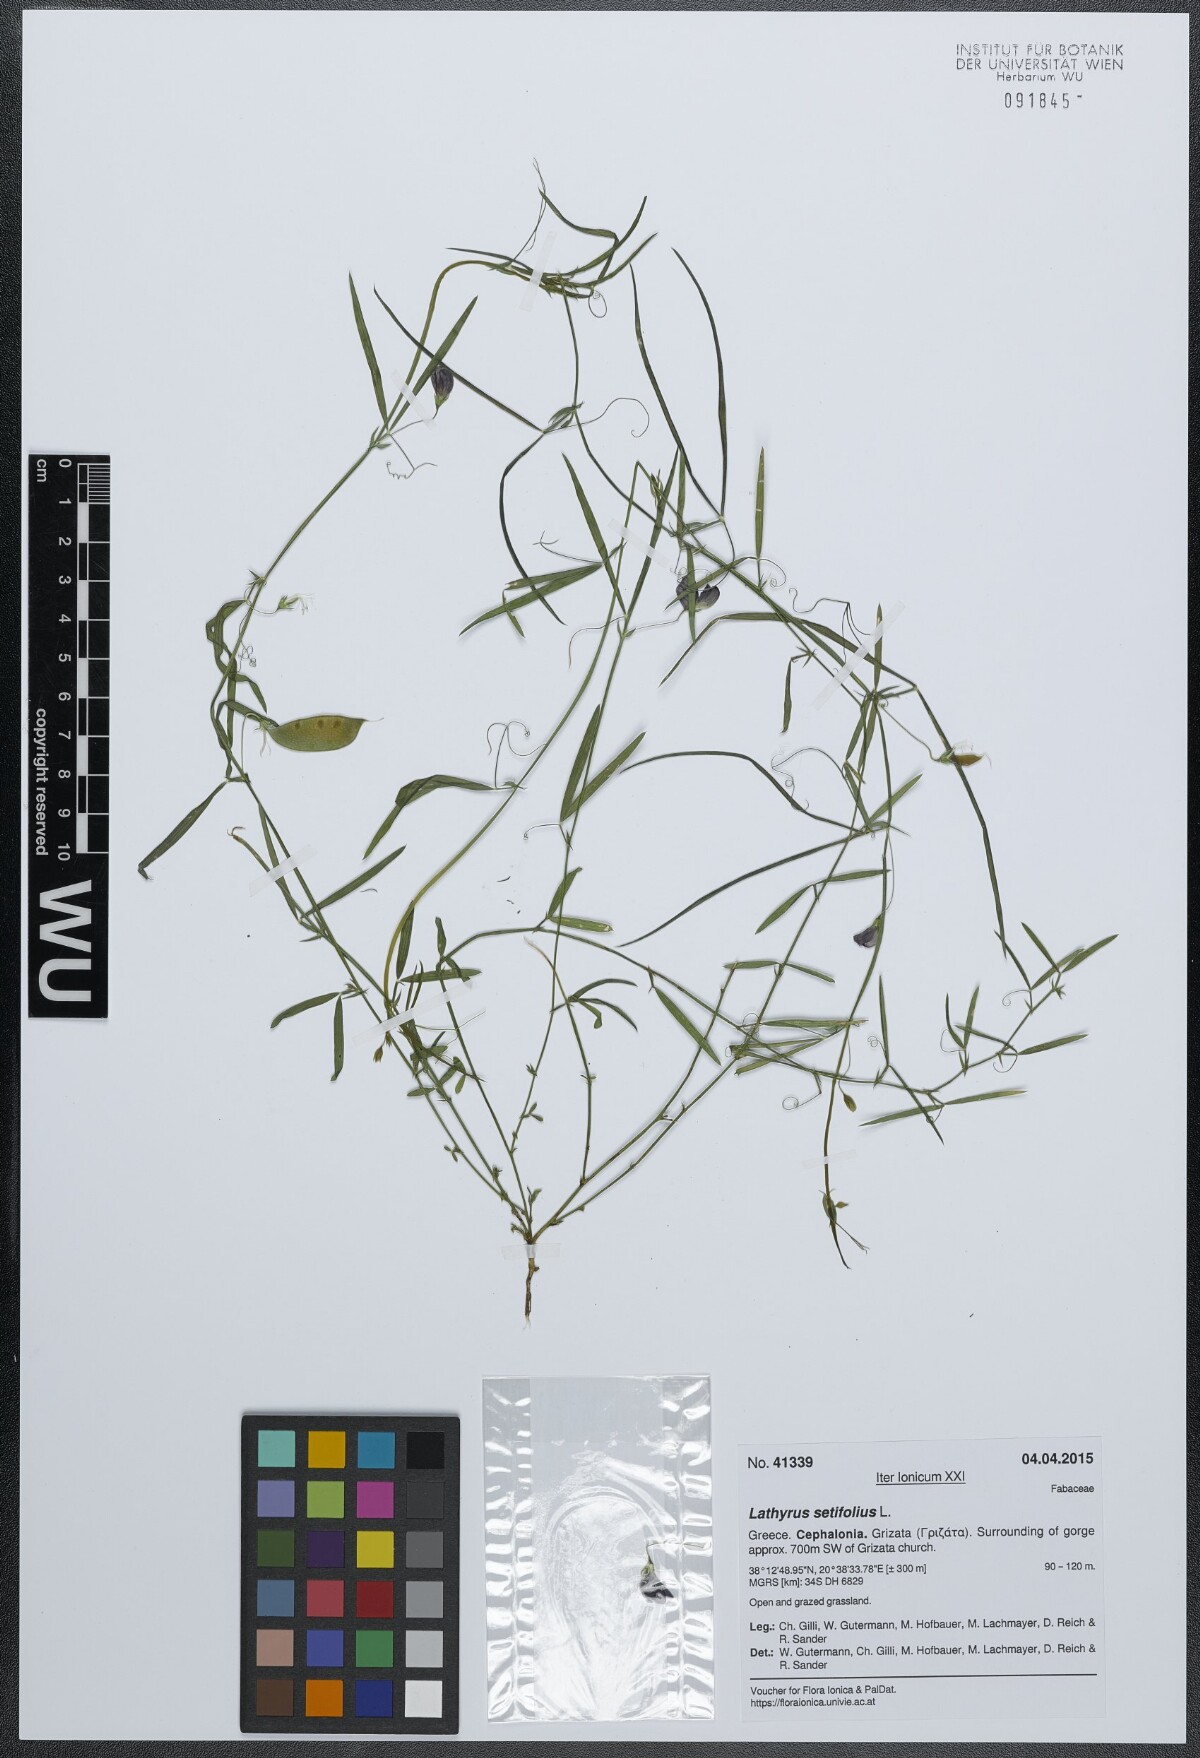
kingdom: Plantae
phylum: Tracheophyta
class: Magnoliopsida
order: Fabales
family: Fabaceae
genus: Lathyrus
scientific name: Lathyrus setifolius
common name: Brown vetchling
